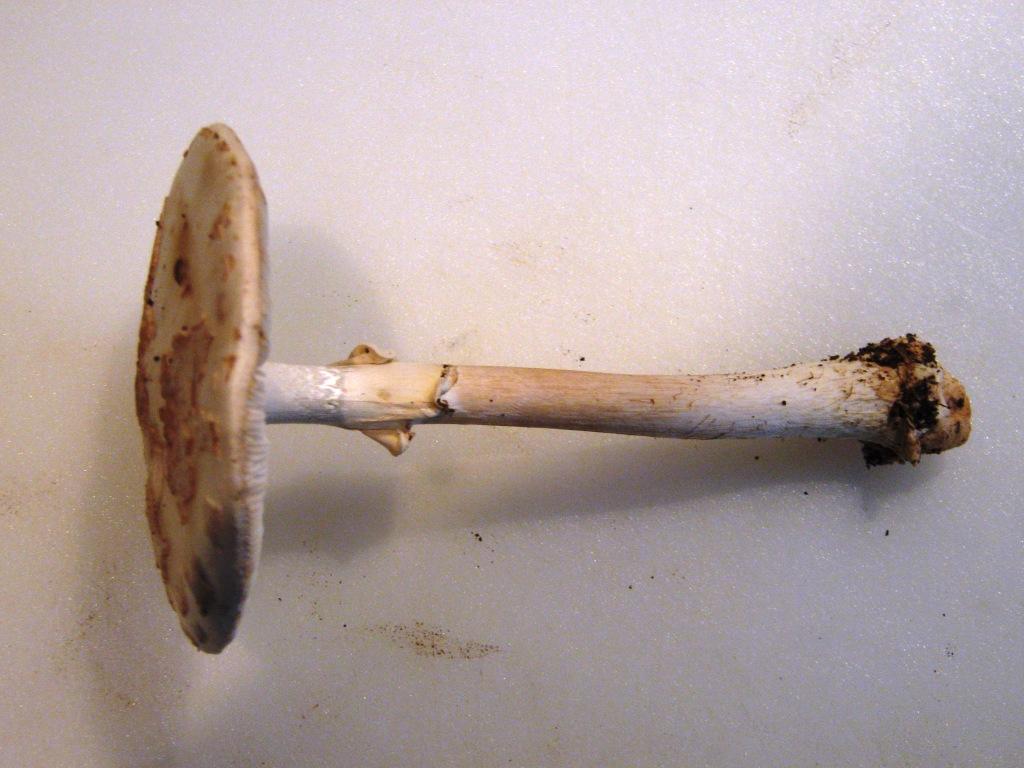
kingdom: Fungi
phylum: Basidiomycota
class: Agaricomycetes
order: Agaricales
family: Amanitaceae
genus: Amanita
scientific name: Amanita citrina
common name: False death-cap
